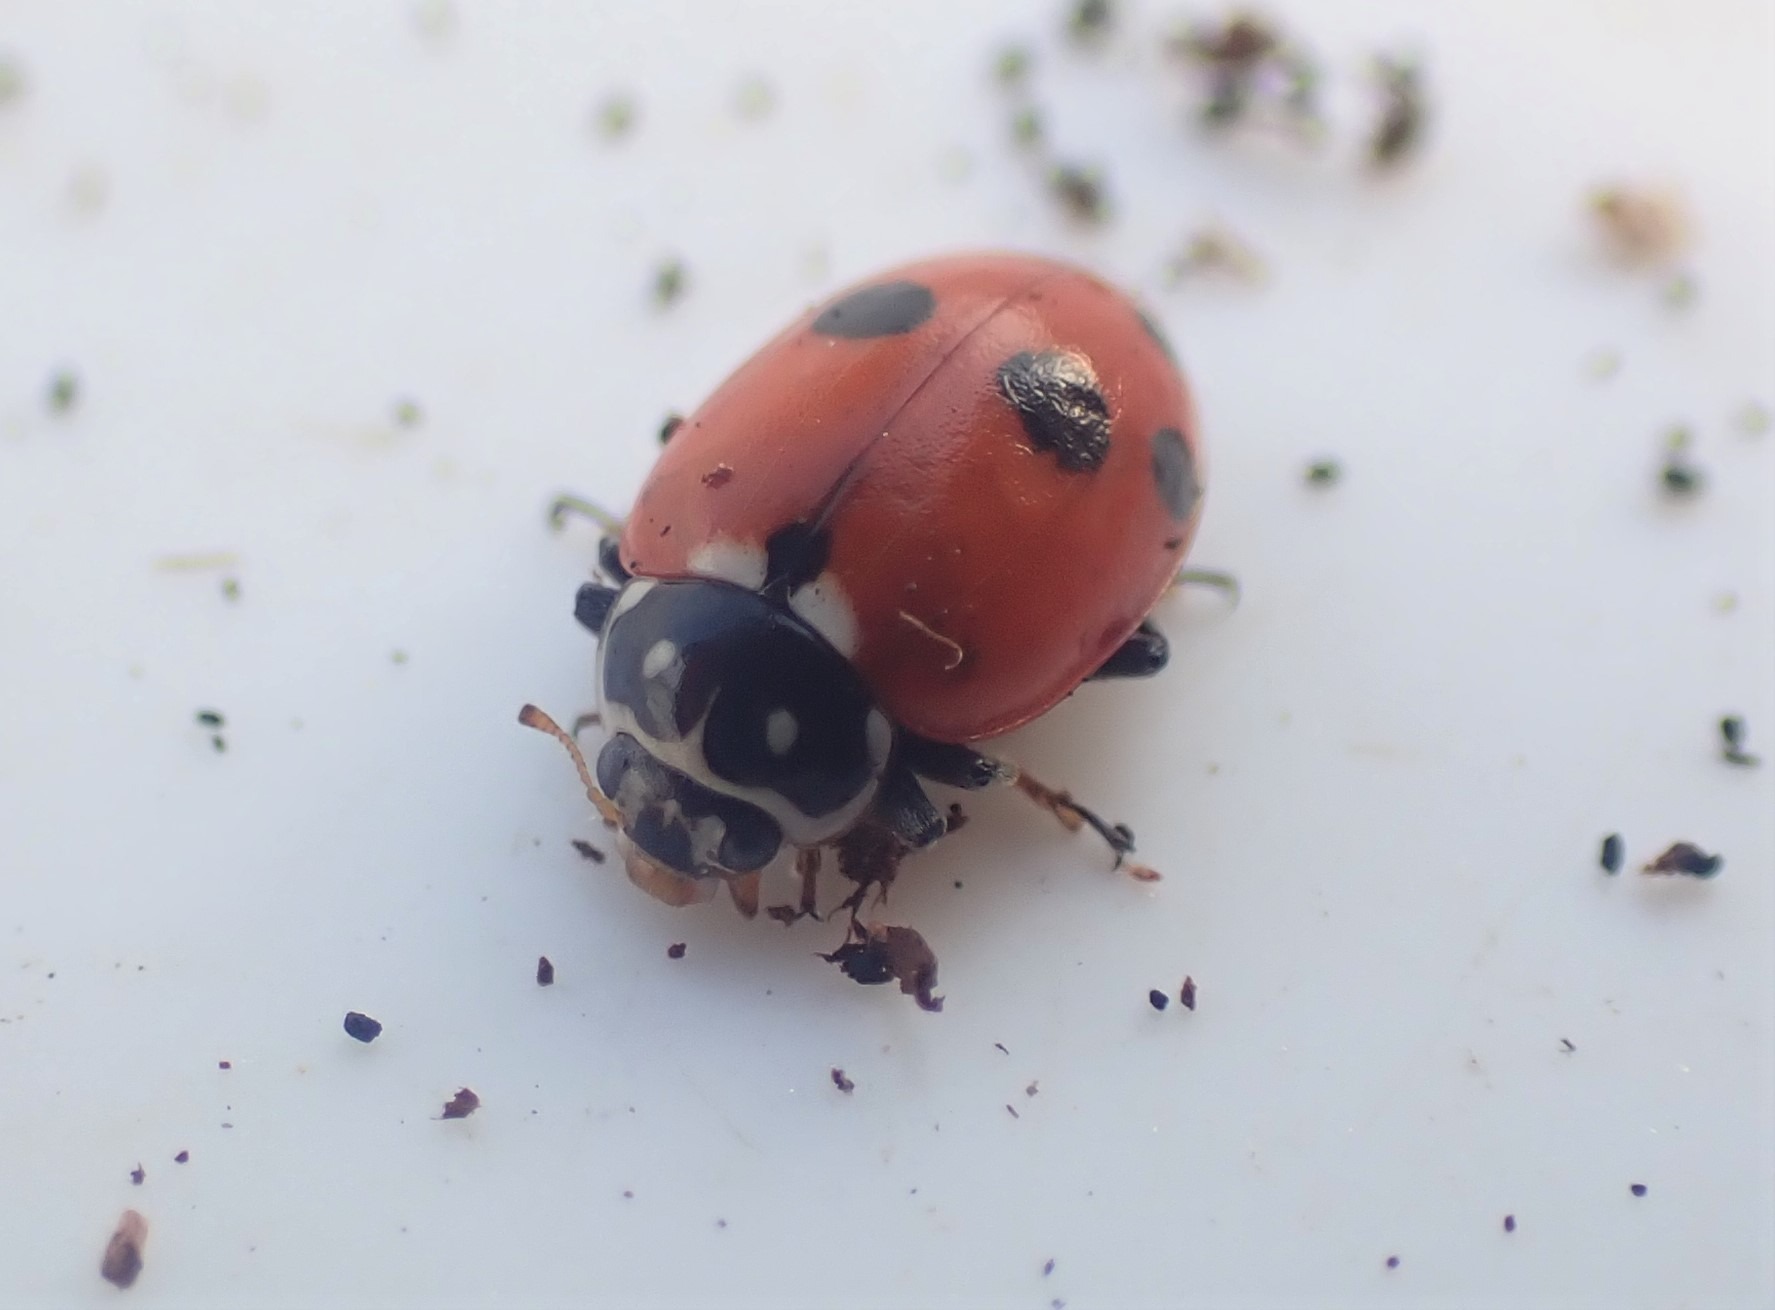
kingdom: Animalia
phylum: Arthropoda
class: Insecta
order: Coleoptera
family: Coccinellidae
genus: Hippodamia
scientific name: Hippodamia variegata
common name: Adonis' mariehøne
